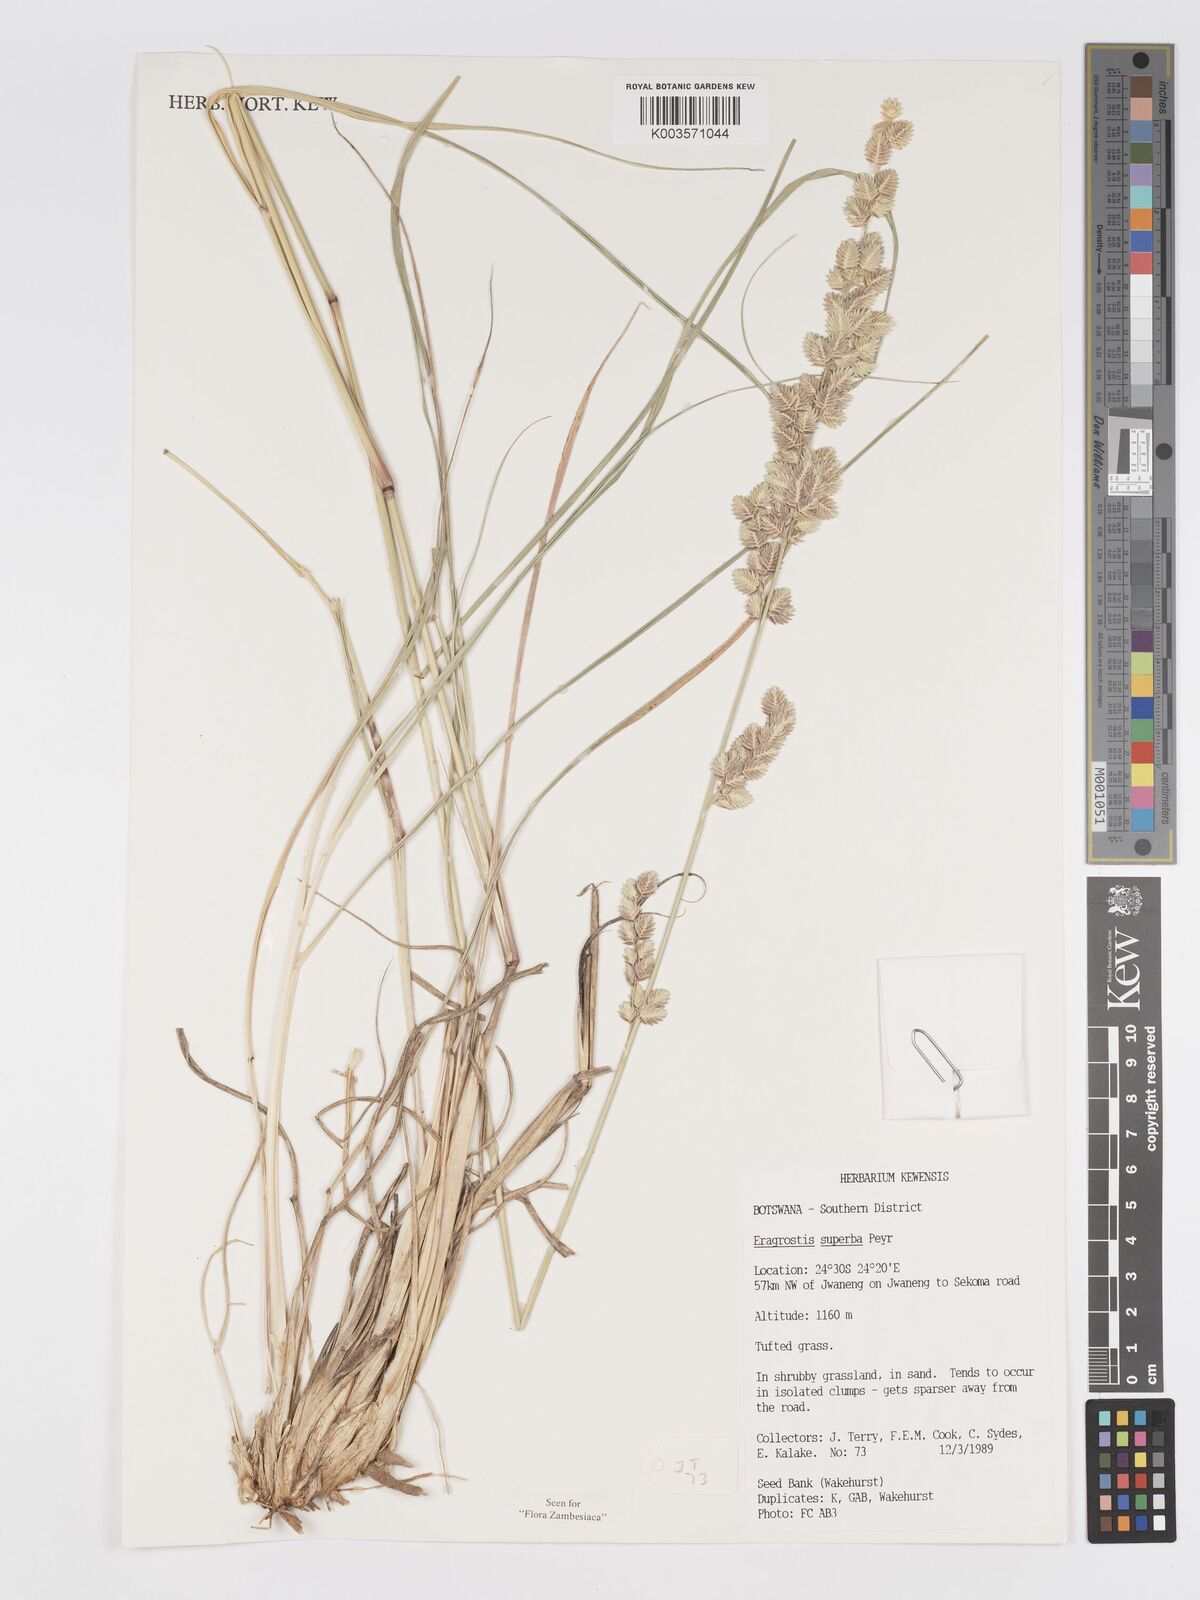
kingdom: Plantae
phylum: Tracheophyta
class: Liliopsida
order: Poales
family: Poaceae
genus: Eragrostis
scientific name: Eragrostis superba
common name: Wilman lovegrass
